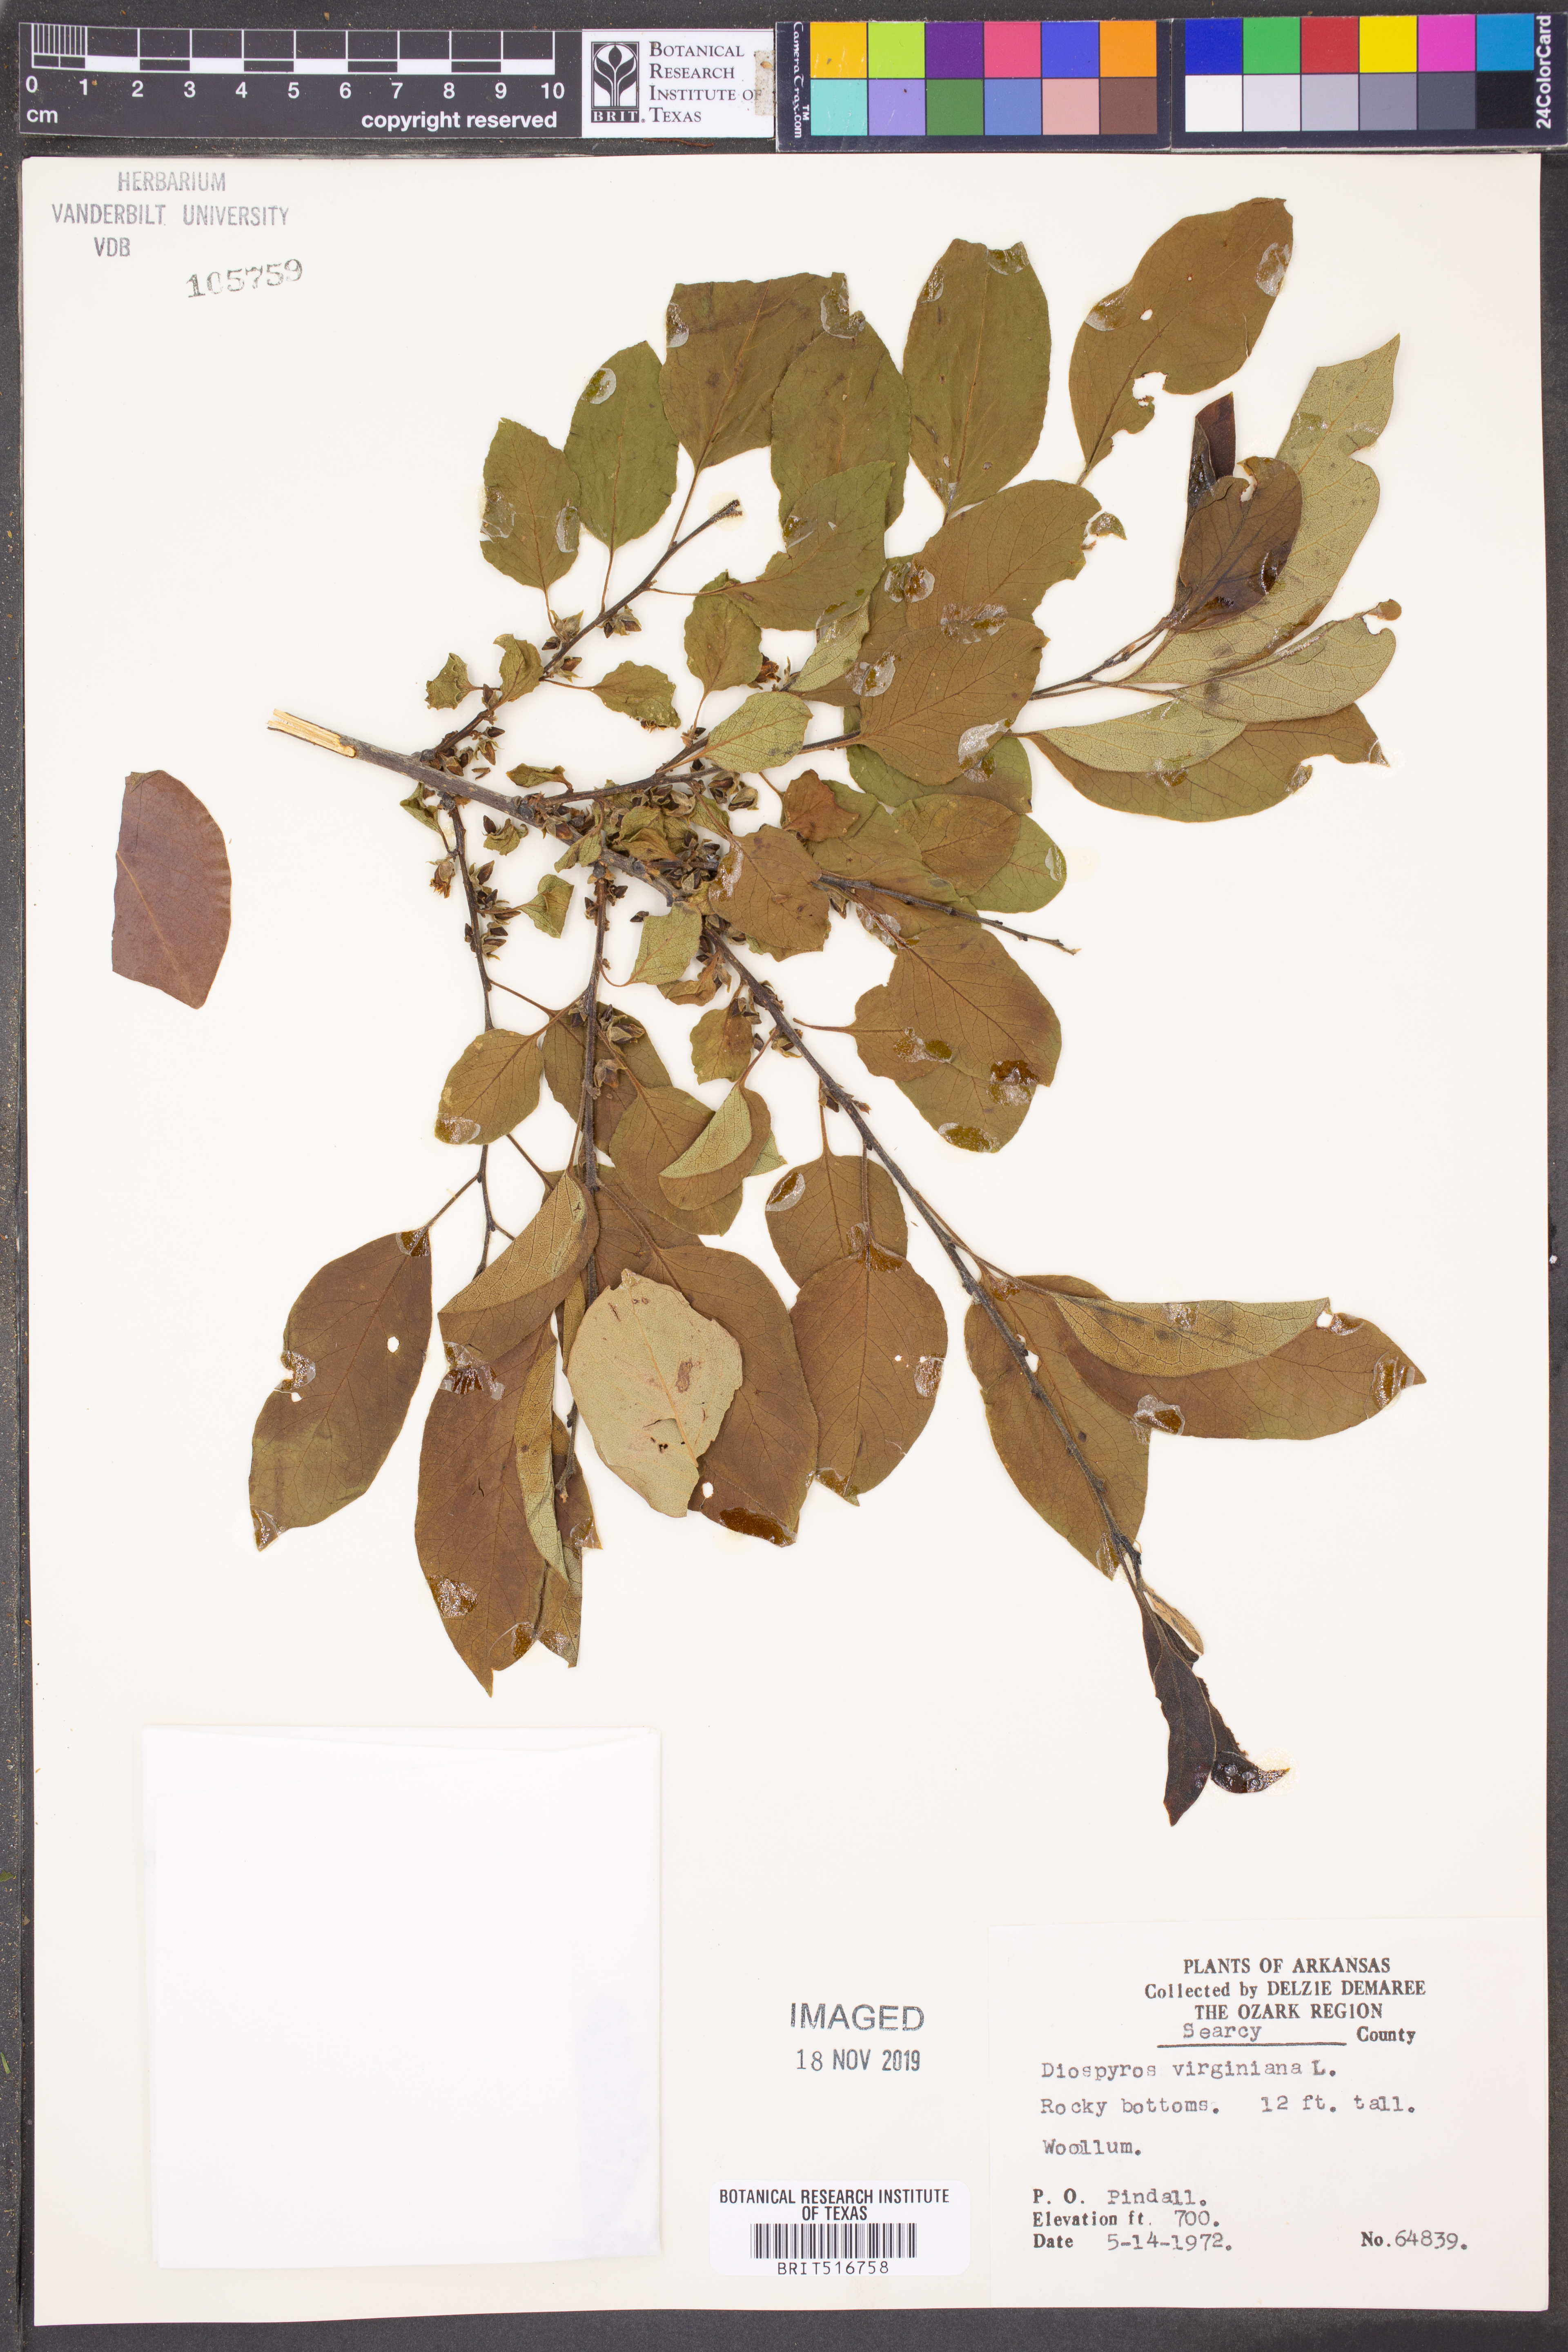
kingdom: Plantae
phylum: Tracheophyta
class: Magnoliopsida
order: Ericales
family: Ebenaceae
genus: Diospyros
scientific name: Diospyros virginiana
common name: Persimmon
